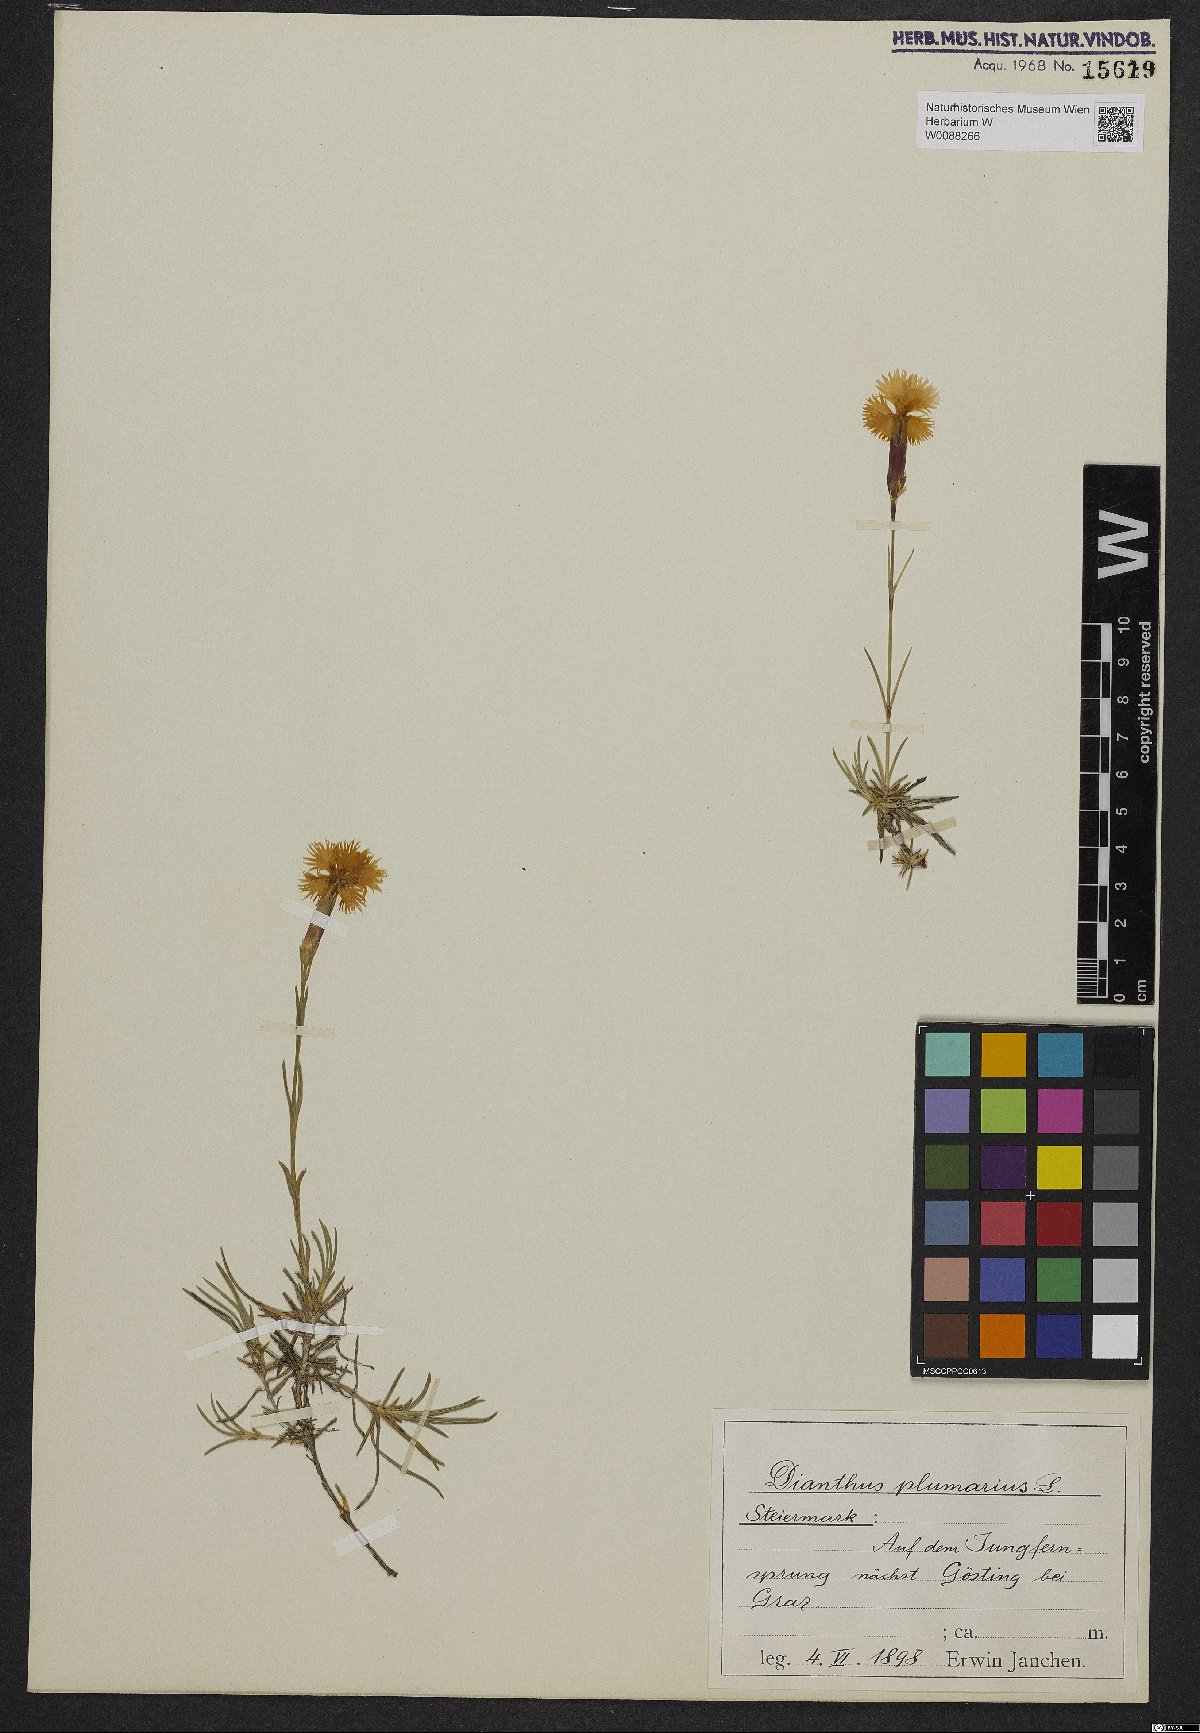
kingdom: Plantae
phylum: Tracheophyta
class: Magnoliopsida
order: Caryophyllales
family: Caryophyllaceae
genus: Dianthus
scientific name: Dianthus plumarius
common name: Pink
